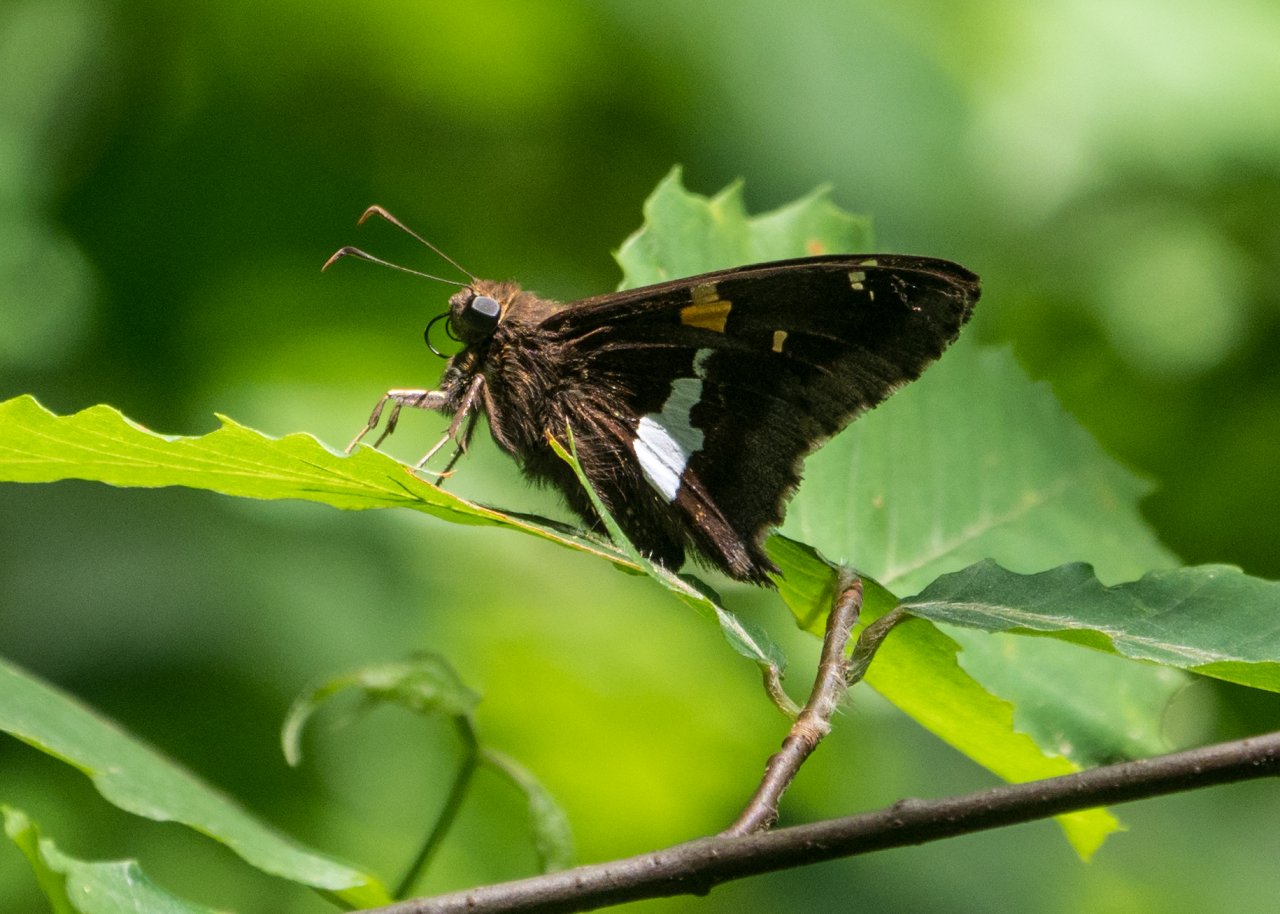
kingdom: Animalia
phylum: Arthropoda
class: Insecta
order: Lepidoptera
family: Hesperiidae
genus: Epargyreus
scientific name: Epargyreus clarus
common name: Silver-spotted Skipper
